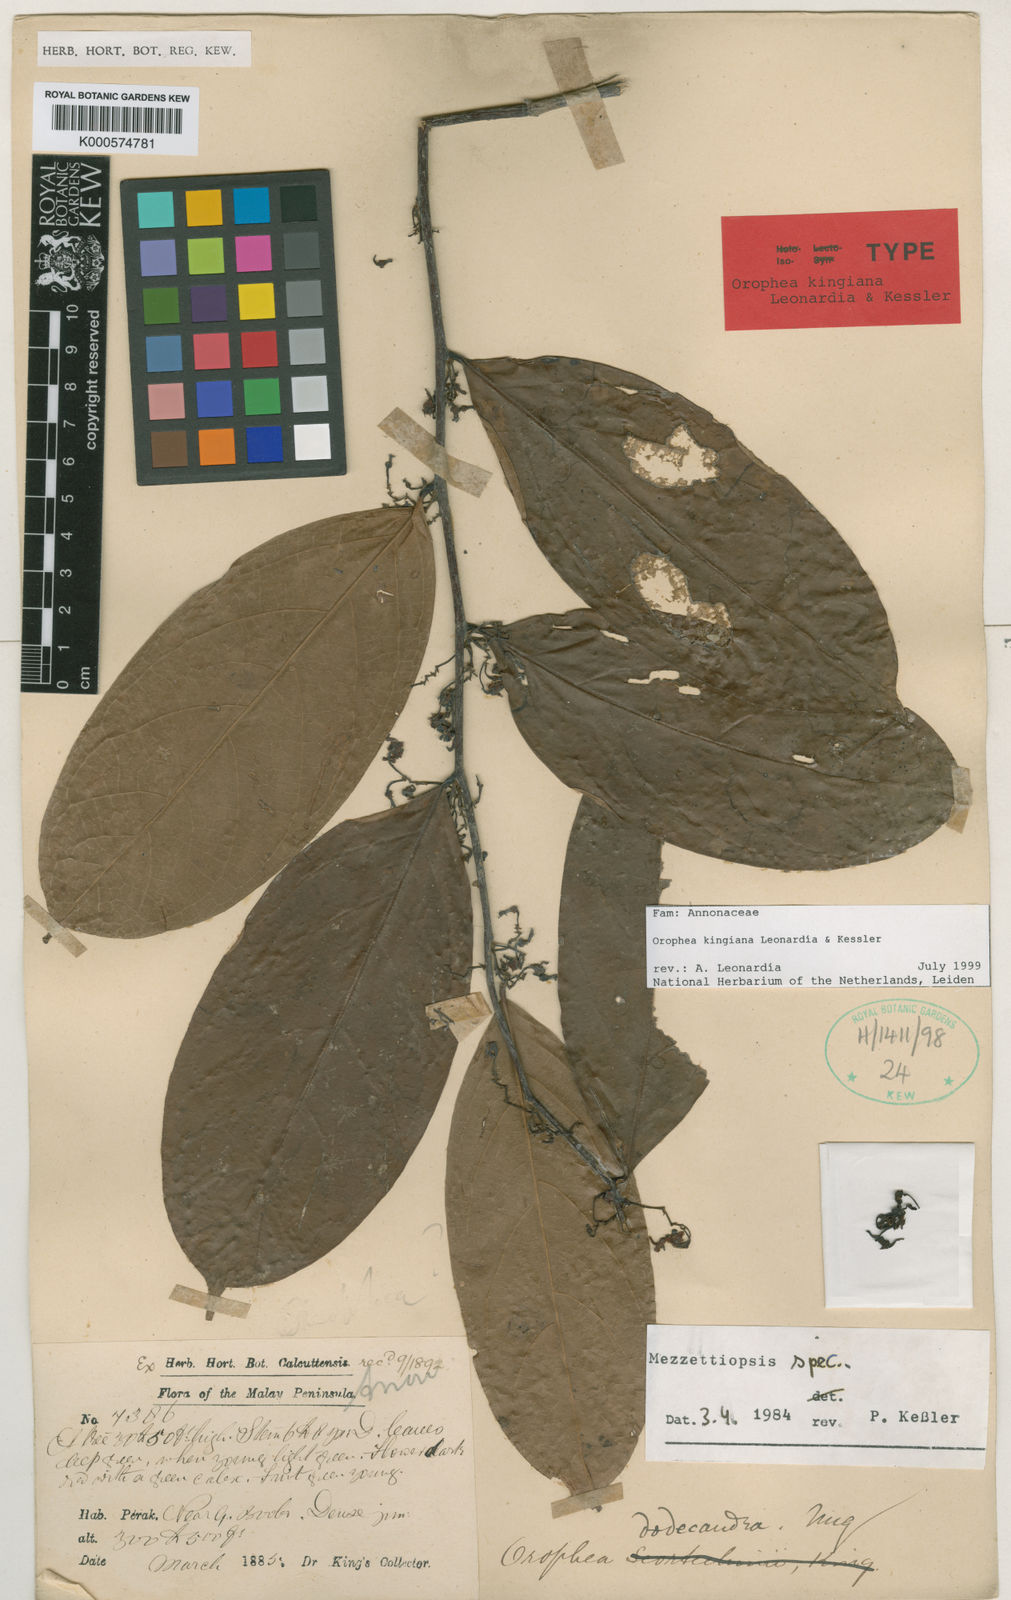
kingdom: Plantae
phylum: Tracheophyta
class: Magnoliopsida
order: Magnoliales
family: Annonaceae
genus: Orophea
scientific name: Orophea
